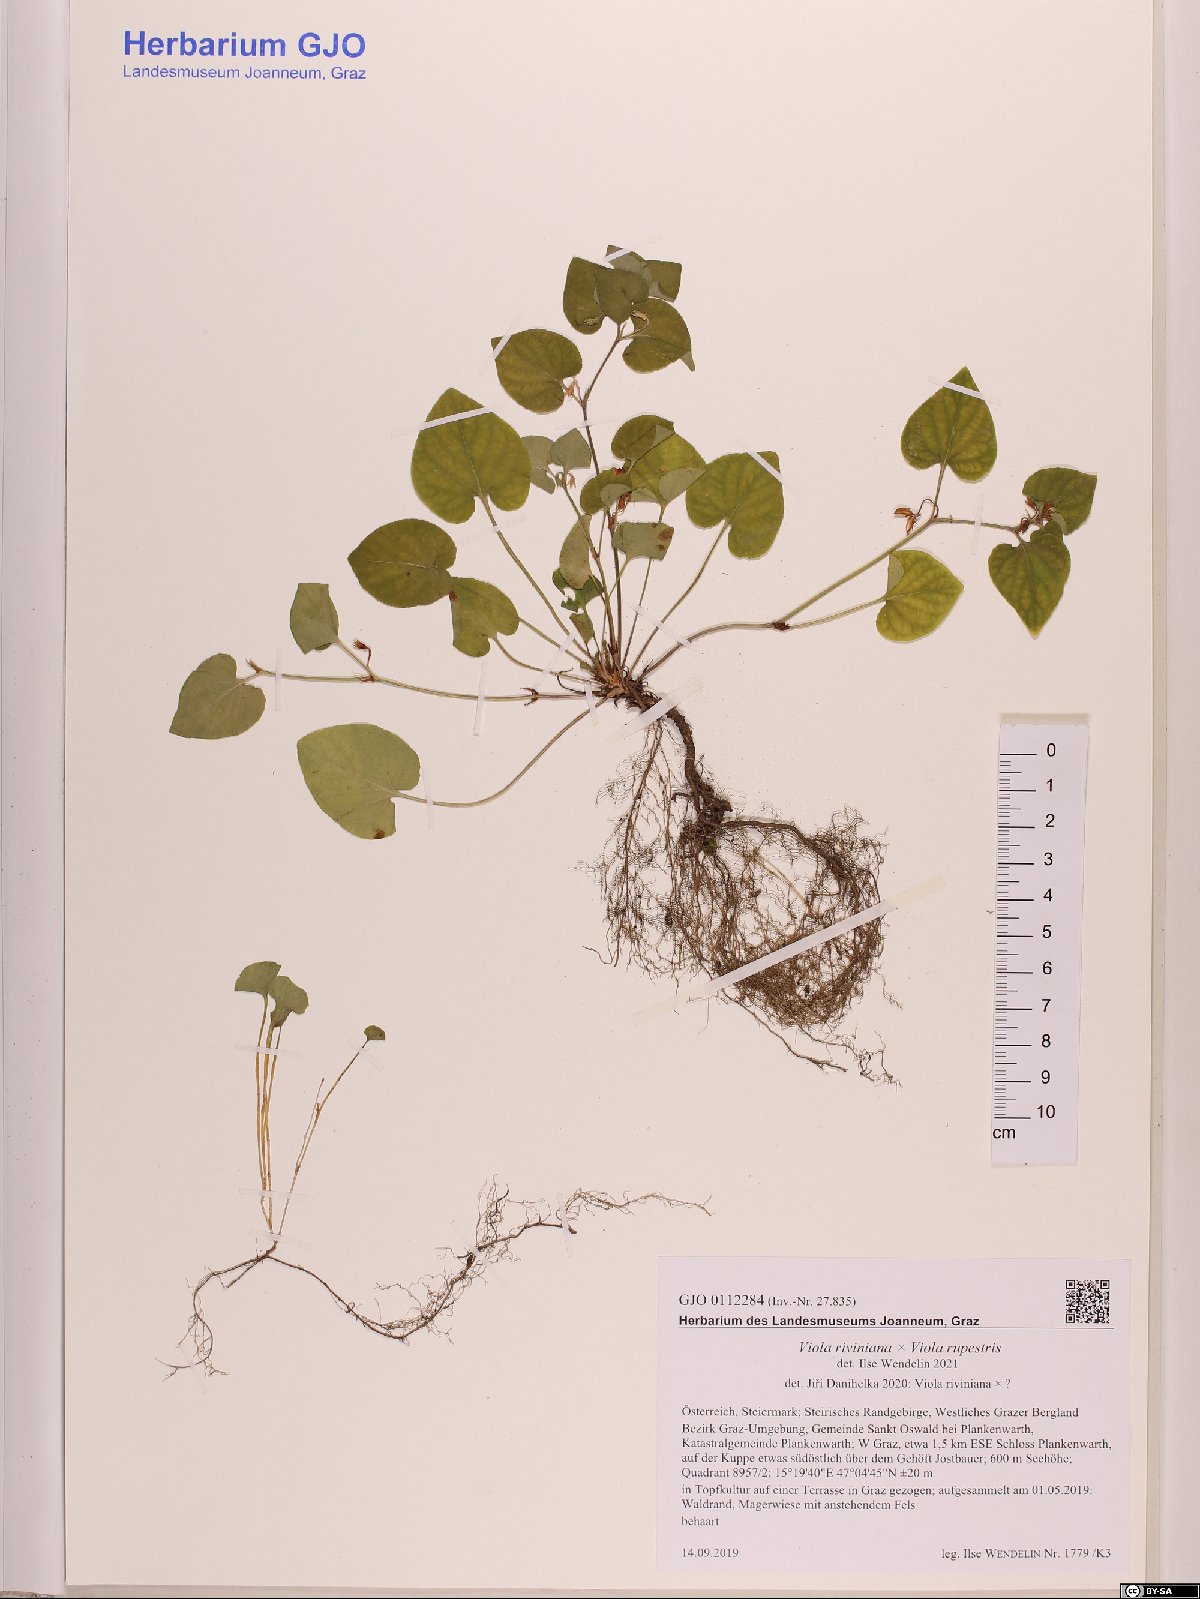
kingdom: Plantae
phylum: Tracheophyta
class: Magnoliopsida
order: Malpighiales
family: Violaceae
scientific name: Violaceae
